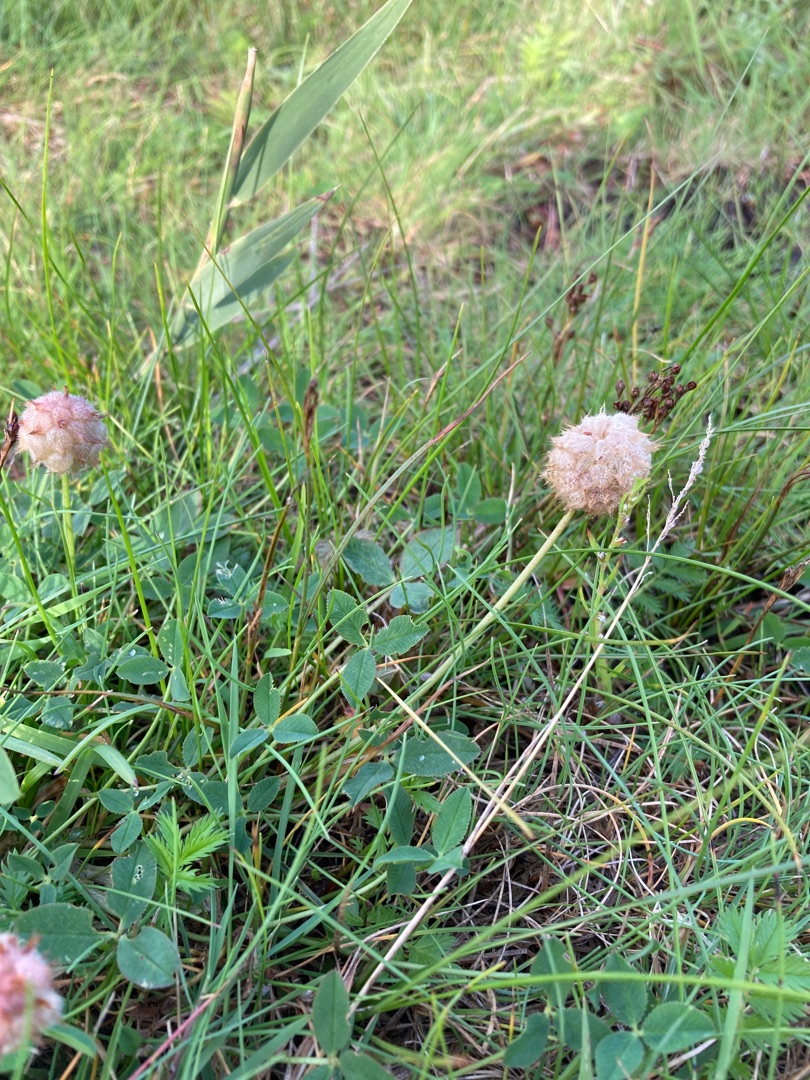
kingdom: Plantae
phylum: Tracheophyta
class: Magnoliopsida
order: Fabales
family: Fabaceae
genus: Trifolium
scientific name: Trifolium fragiferum
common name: Jordbær-kløver
